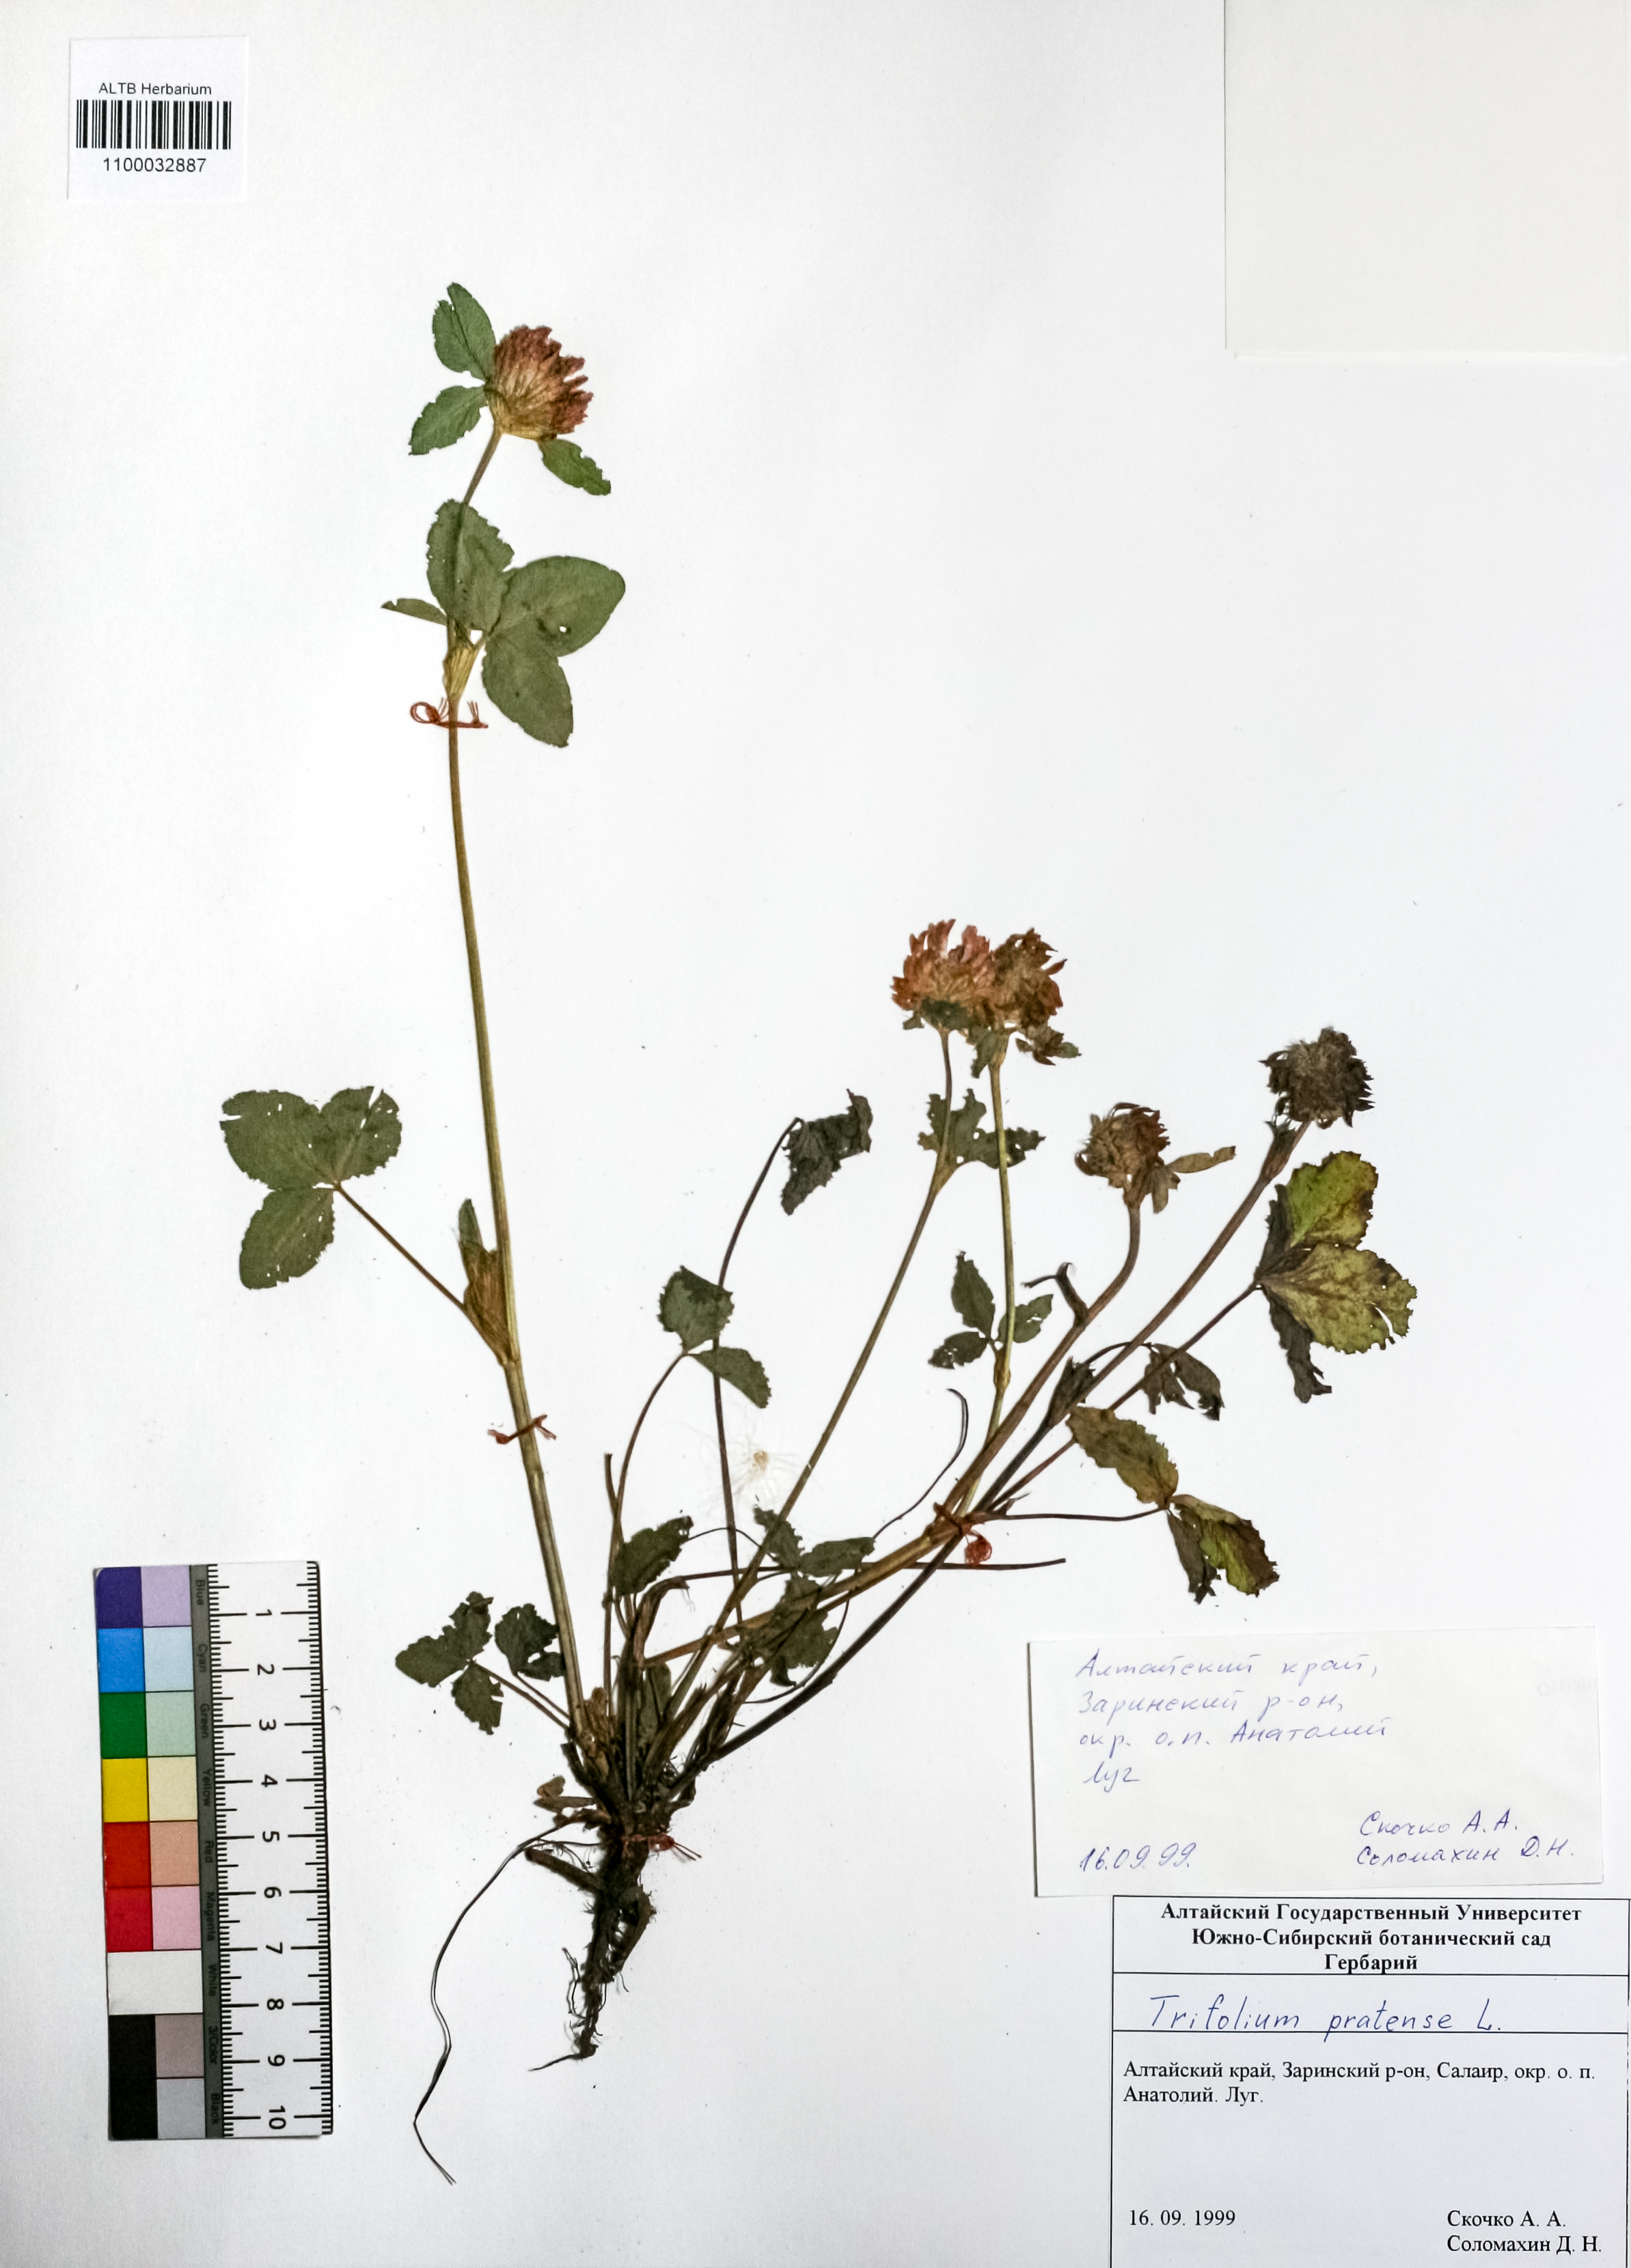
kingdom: Plantae
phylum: Tracheophyta
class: Magnoliopsida
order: Fabales
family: Fabaceae
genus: Trifolium
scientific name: Trifolium pratense
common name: Red clover
